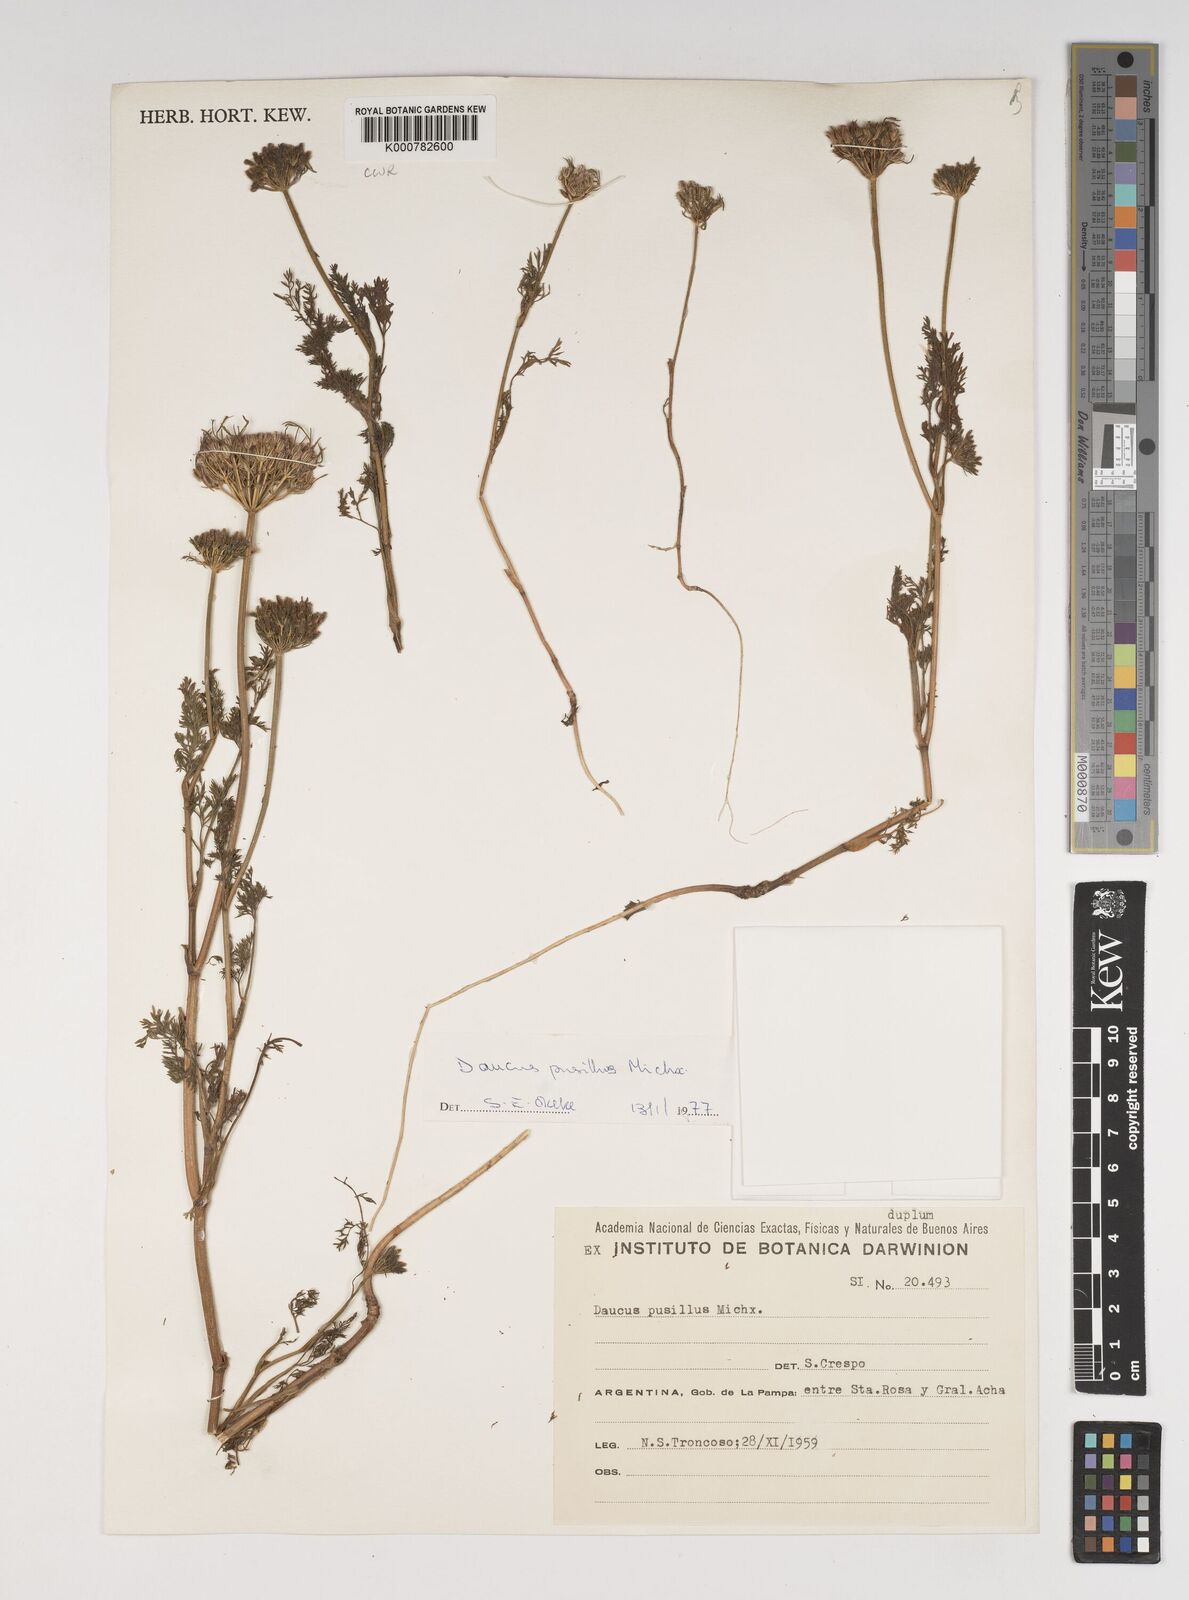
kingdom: Plantae
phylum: Tracheophyta
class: Magnoliopsida
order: Apiales
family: Apiaceae
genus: Daucus
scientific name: Daucus pusillus
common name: Southwest wild carrot
